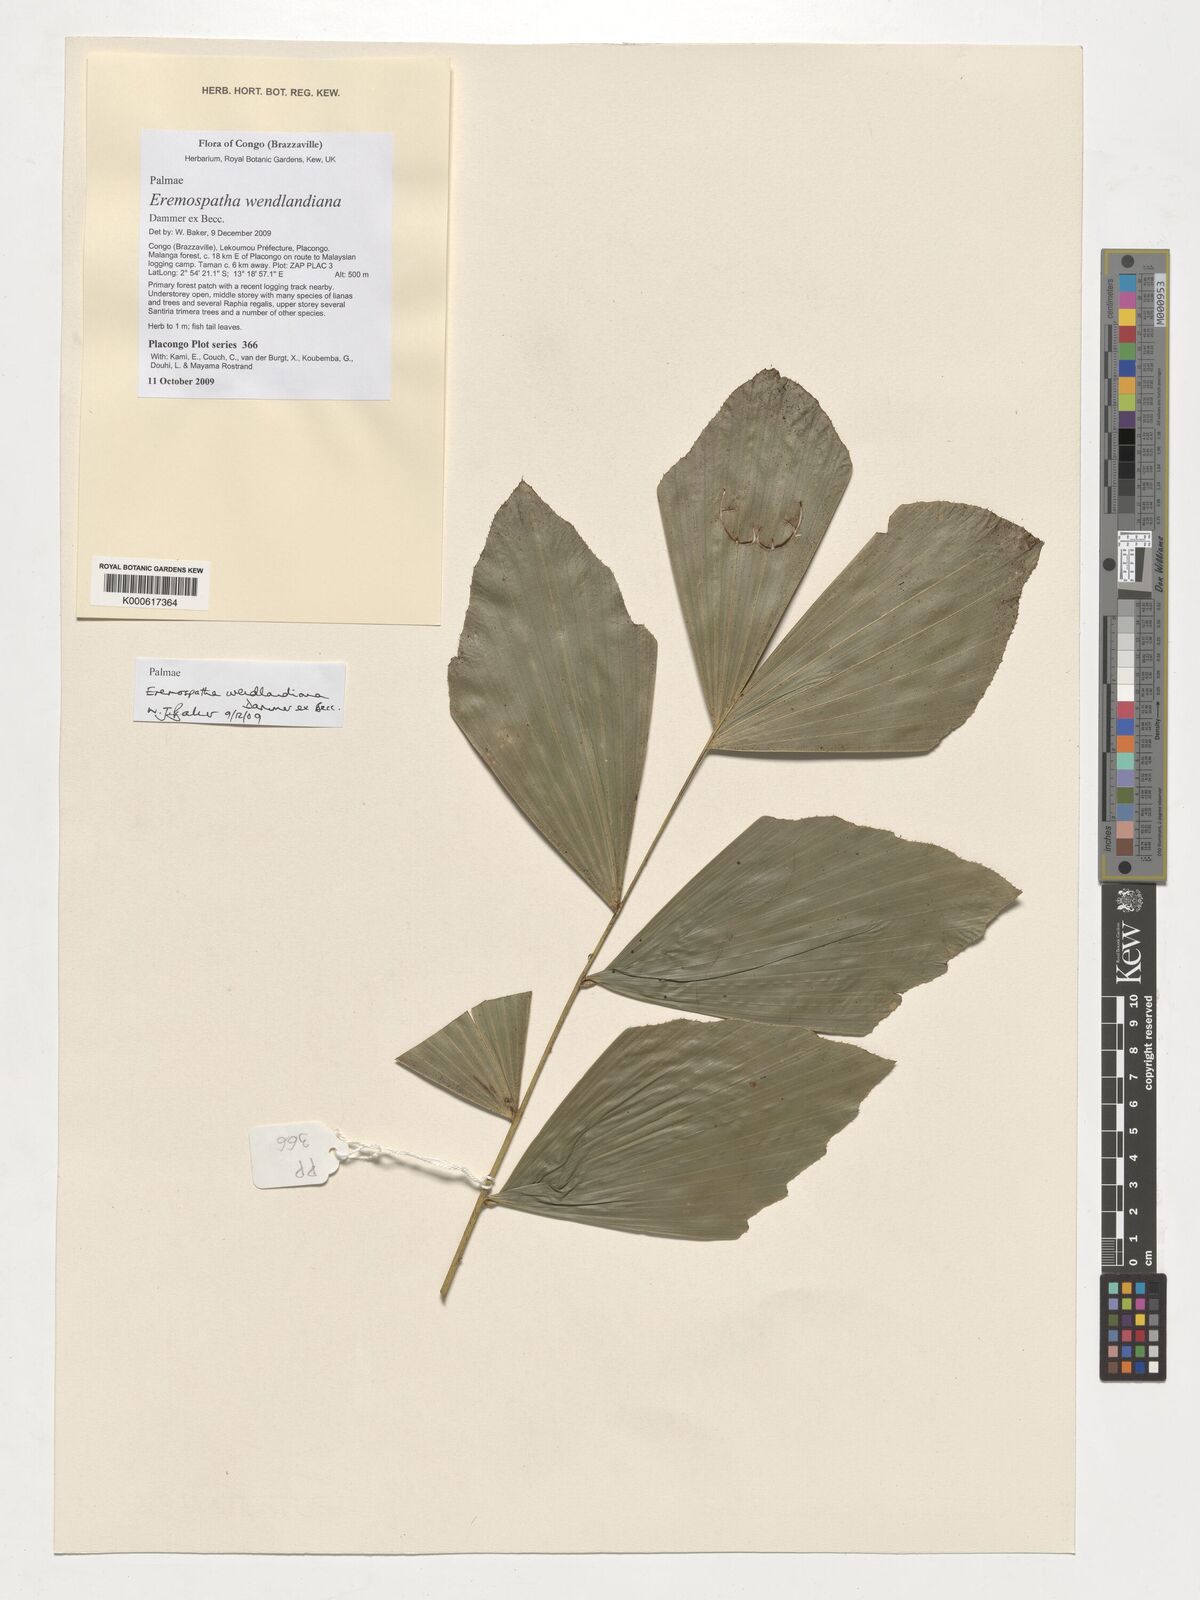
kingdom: Plantae
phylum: Tracheophyta
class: Liliopsida
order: Arecales
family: Arecaceae
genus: Eremospatha
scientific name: Eremospatha wendlandiana
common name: Rattan
